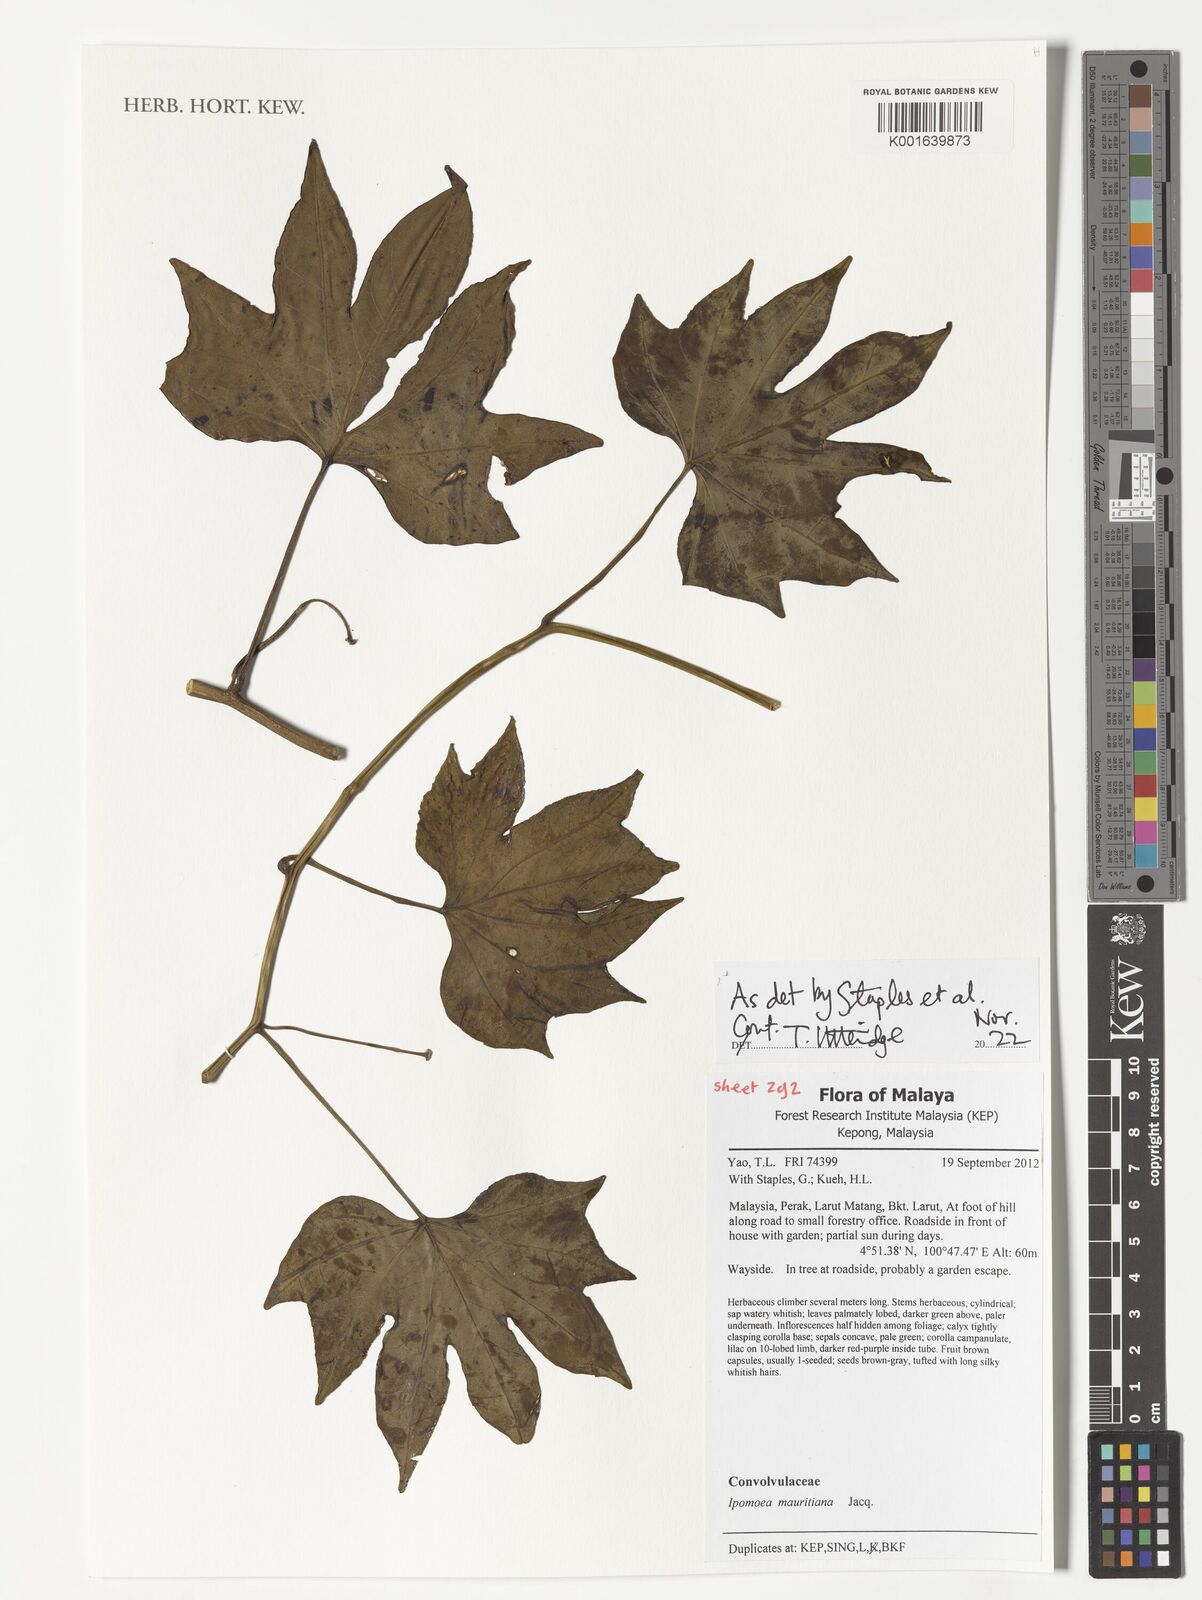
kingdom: Plantae
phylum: Tracheophyta
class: Magnoliopsida
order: Solanales
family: Convolvulaceae
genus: Ipomoea
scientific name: Ipomoea mauritiana
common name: Mauritanian convolvulus
